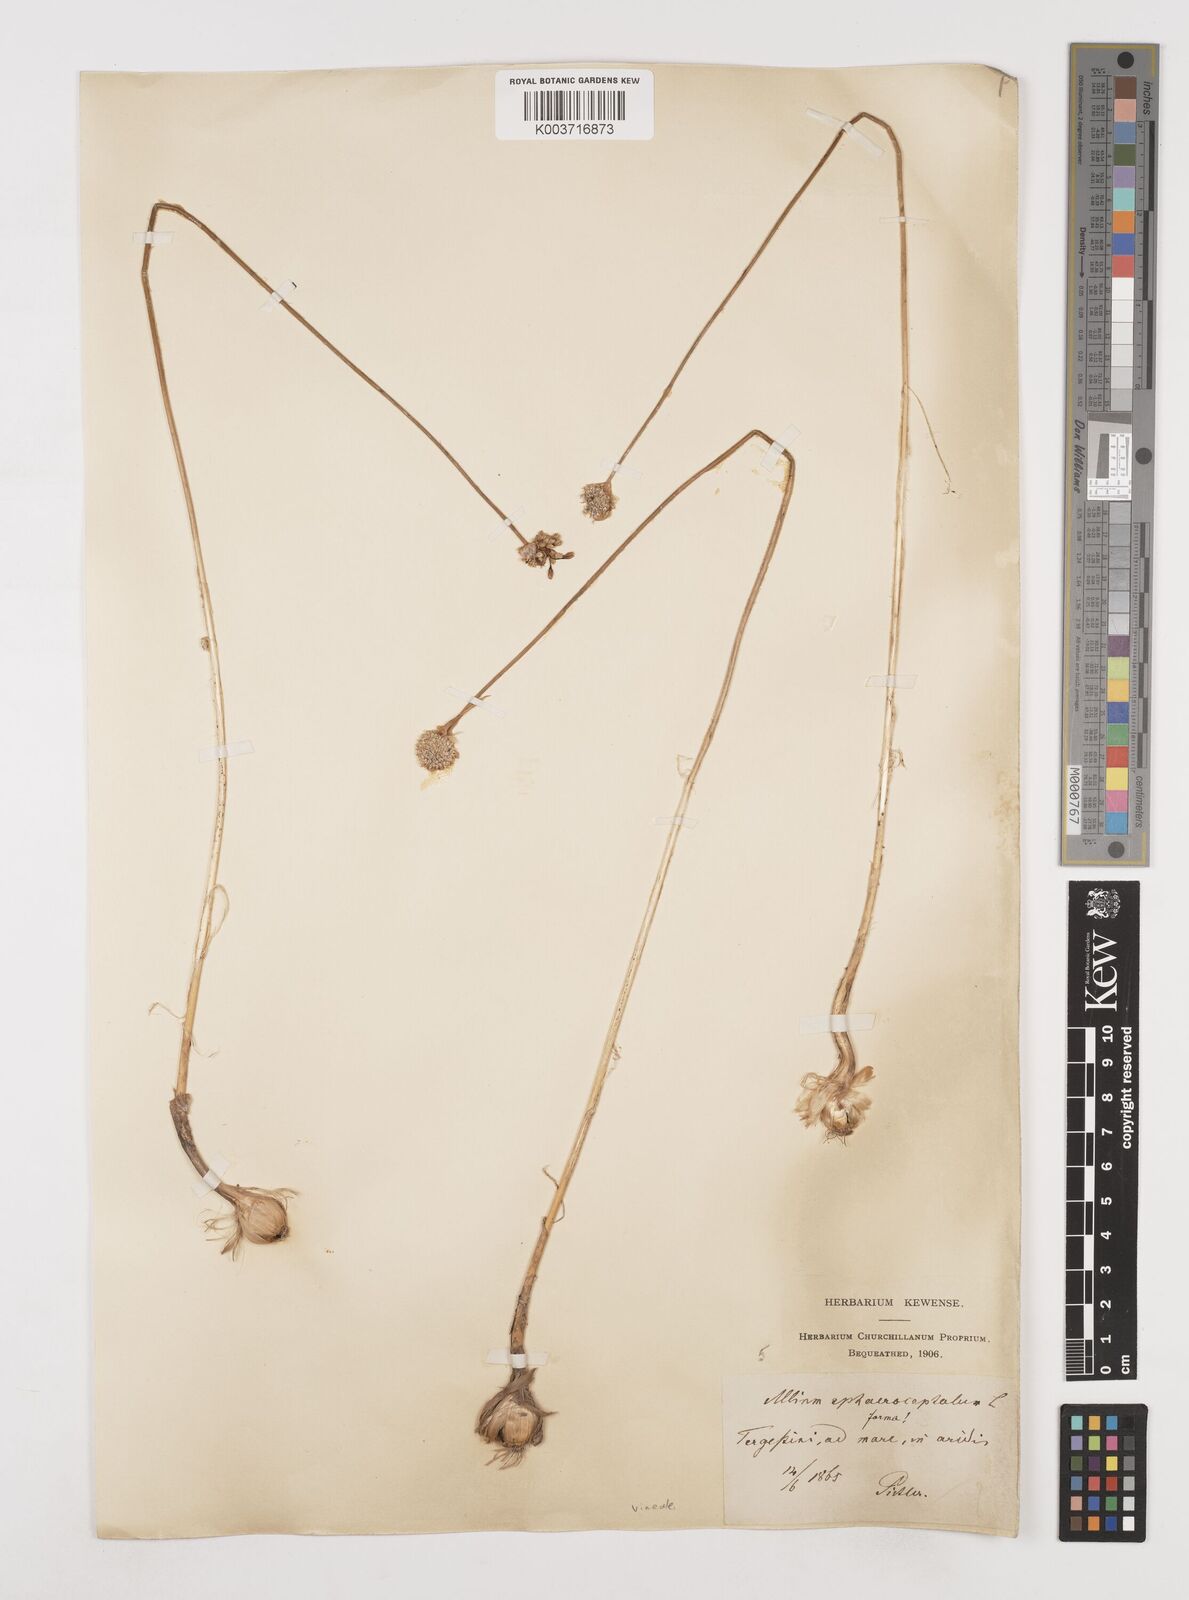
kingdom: Plantae
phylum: Tracheophyta
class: Liliopsida
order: Asparagales
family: Amaryllidaceae
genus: Allium
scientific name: Allium sphaerocephalon
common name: Round-headed leek
